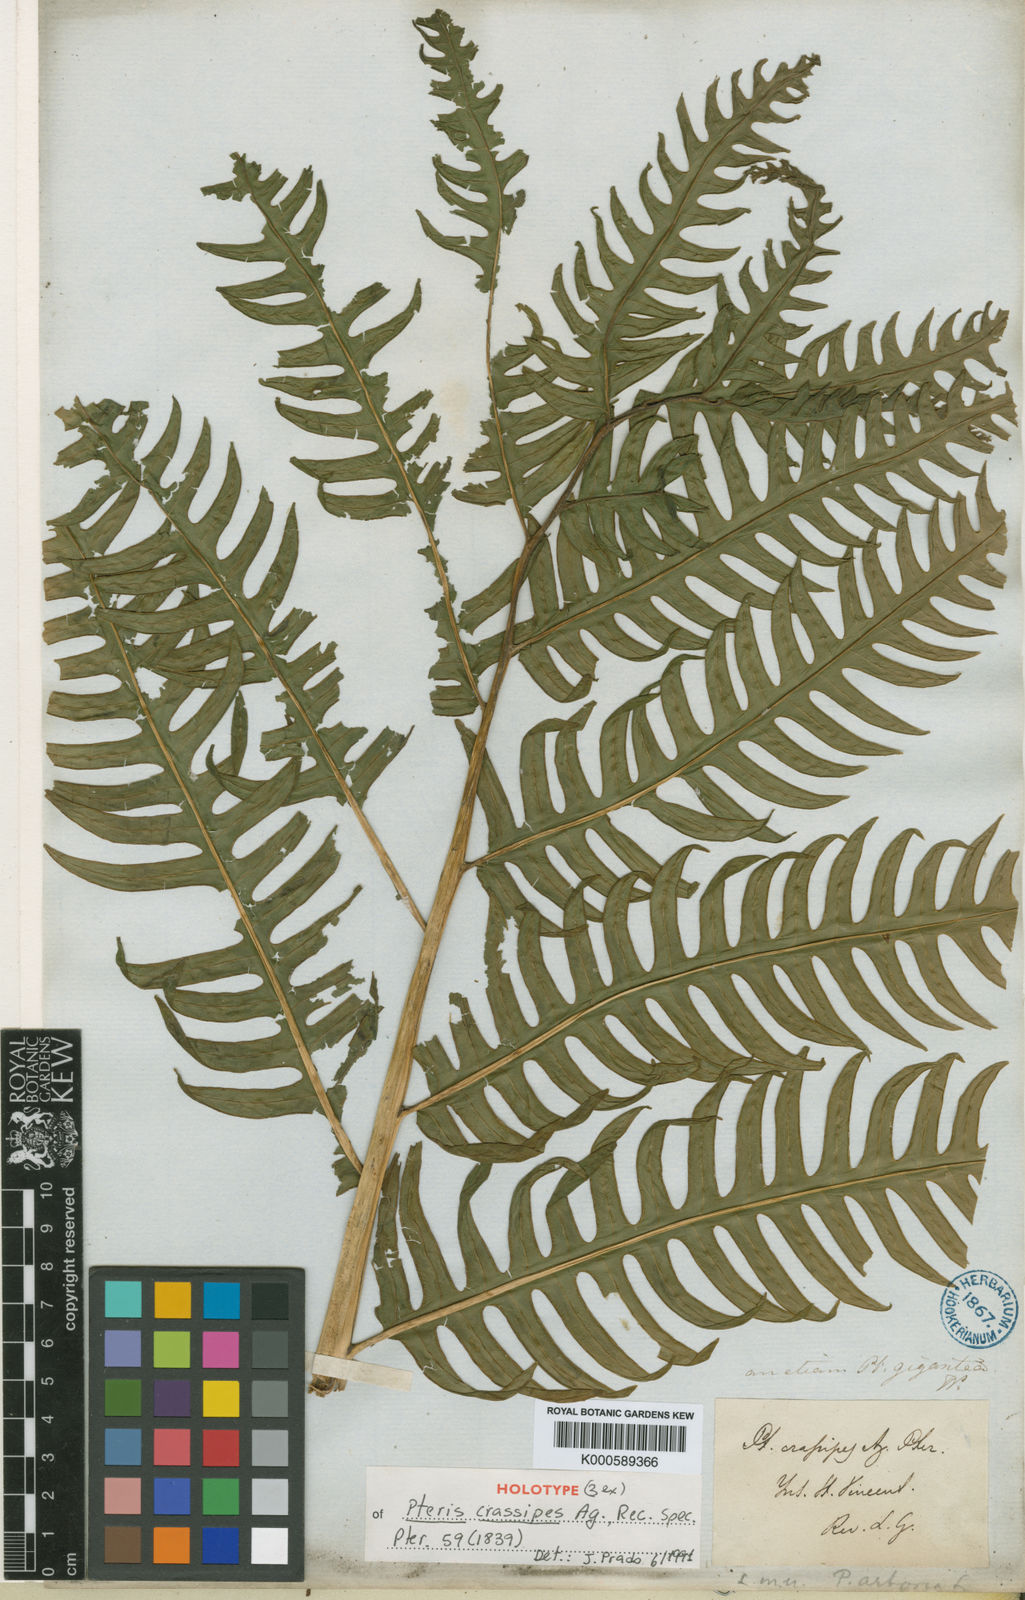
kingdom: Plantae
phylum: Tracheophyta
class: Polypodiopsida
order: Polypodiales
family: Pteridaceae
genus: Pteris
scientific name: Pteris gigantea
